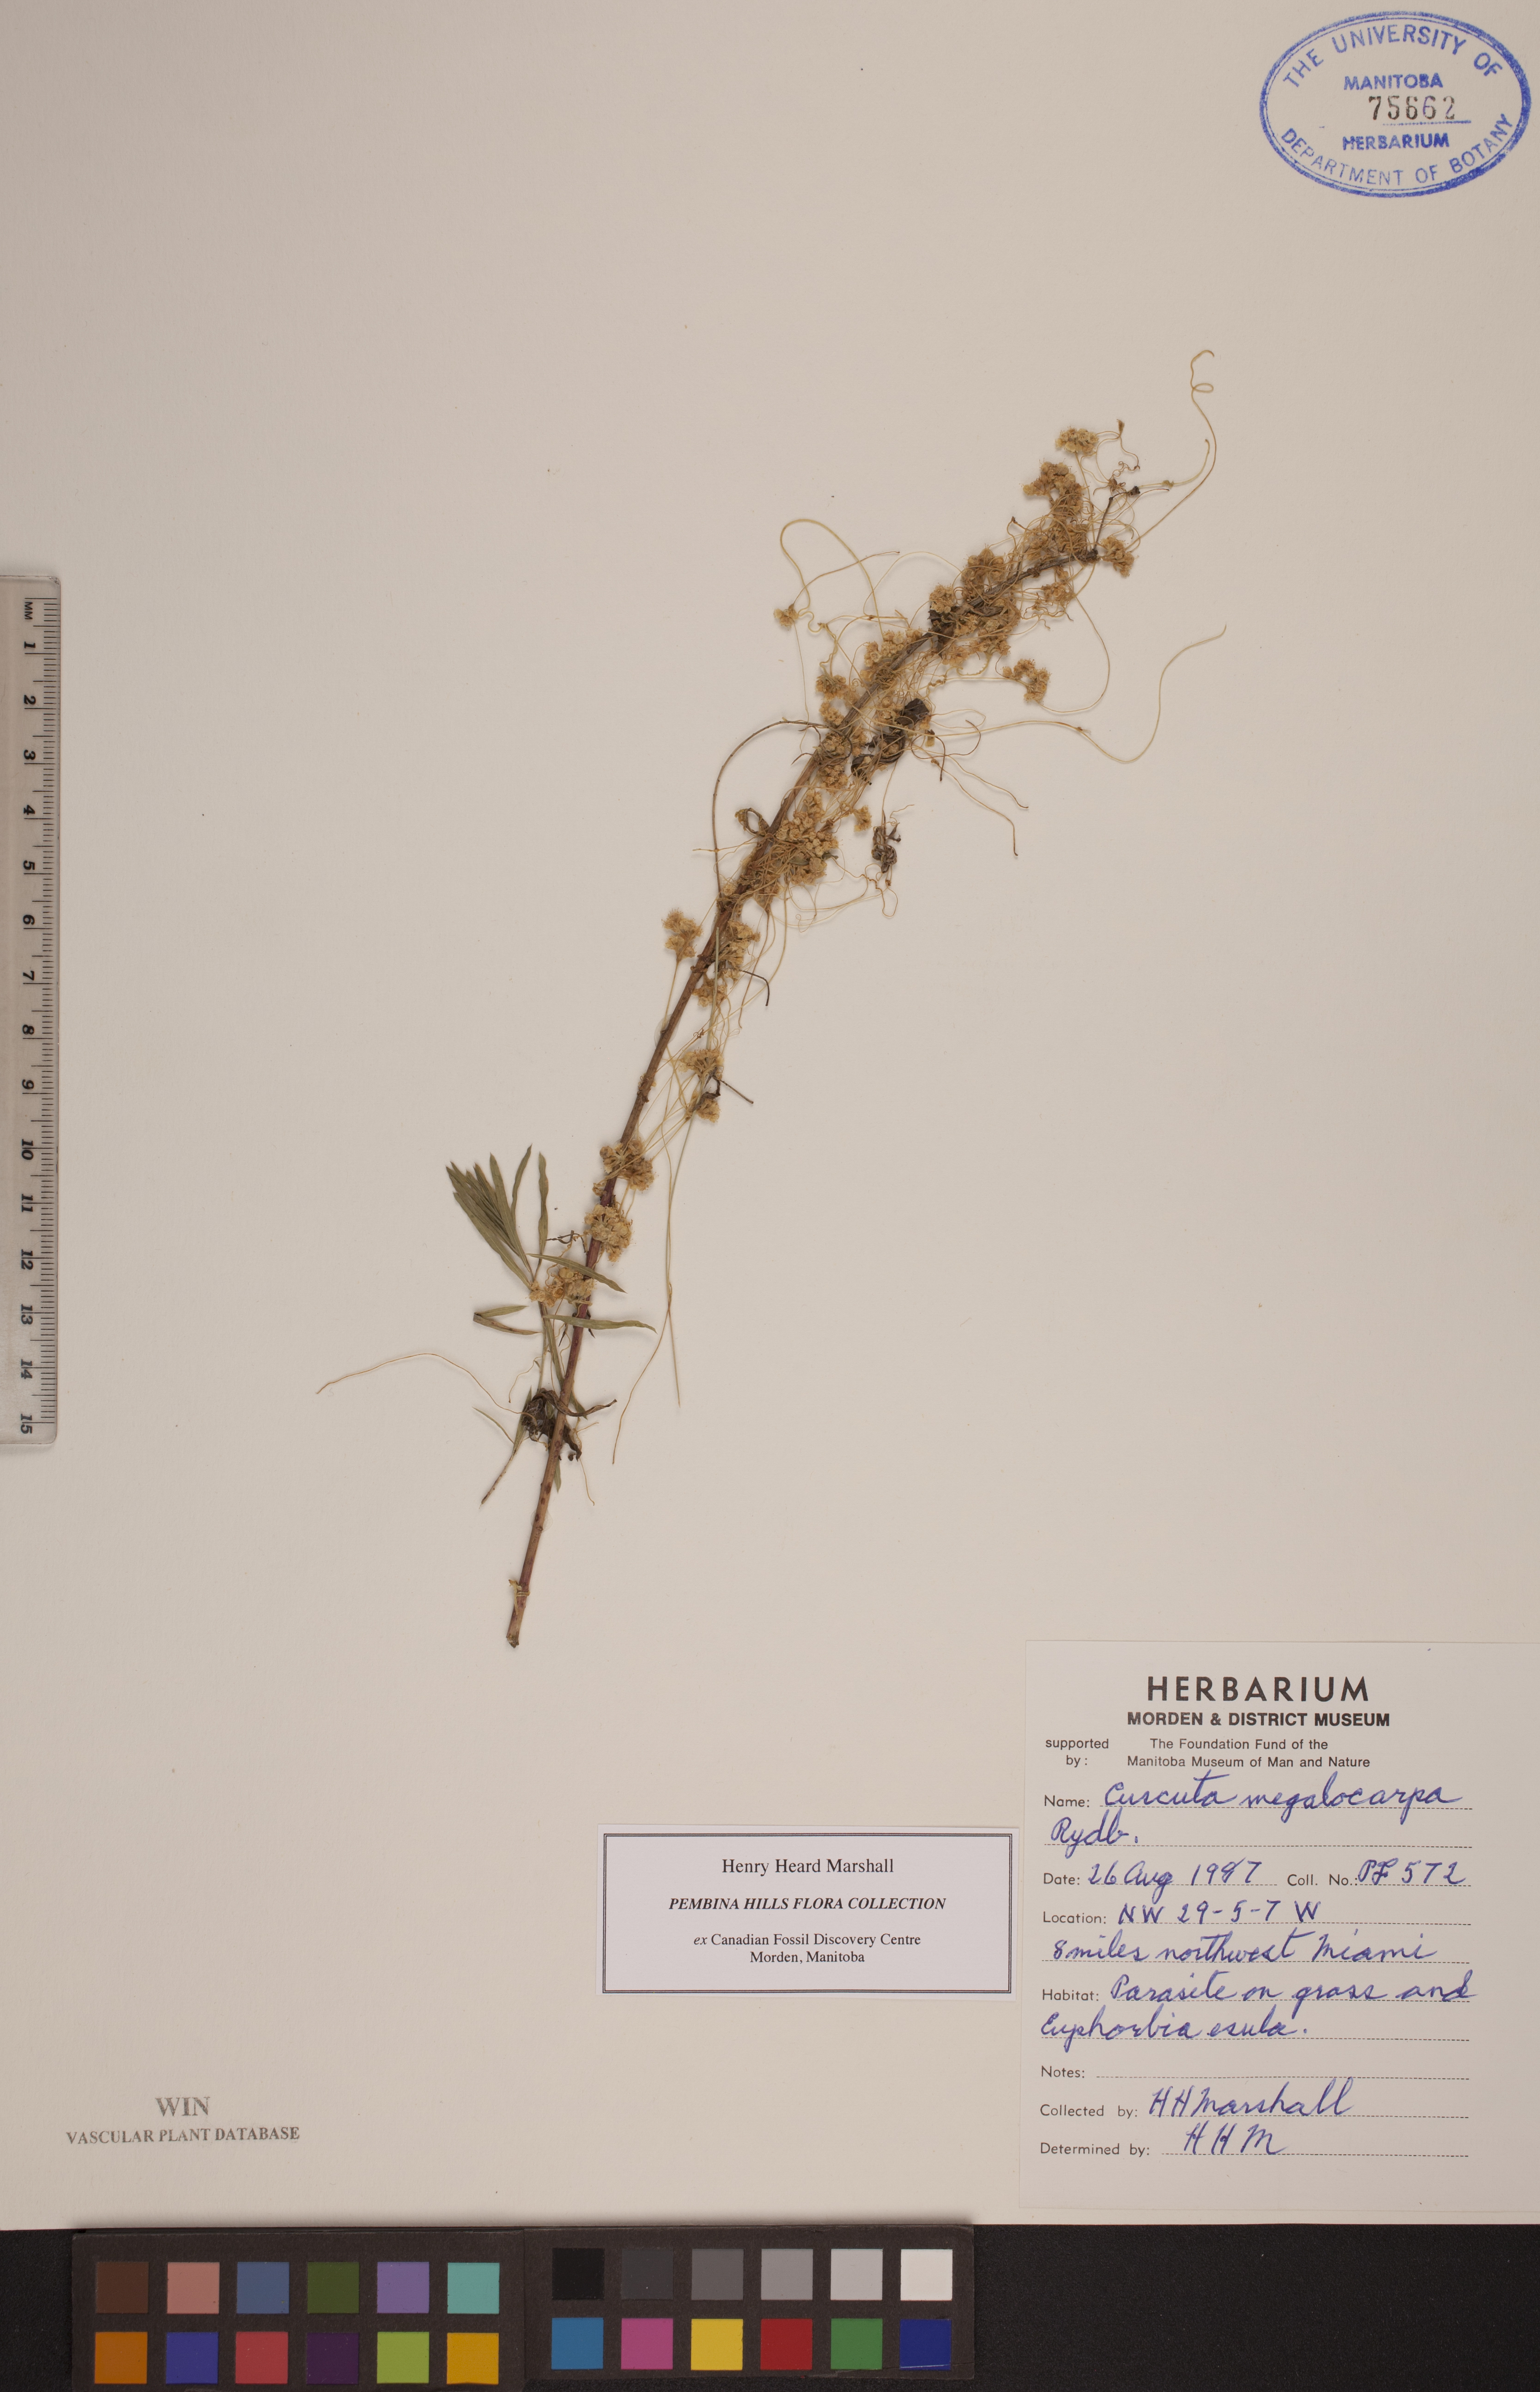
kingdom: Plantae
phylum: Tracheophyta
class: Magnoliopsida
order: Solanales
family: Convolvulaceae
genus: Cuscuta
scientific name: Cuscuta umbrosa
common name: Bigfruit dodder
